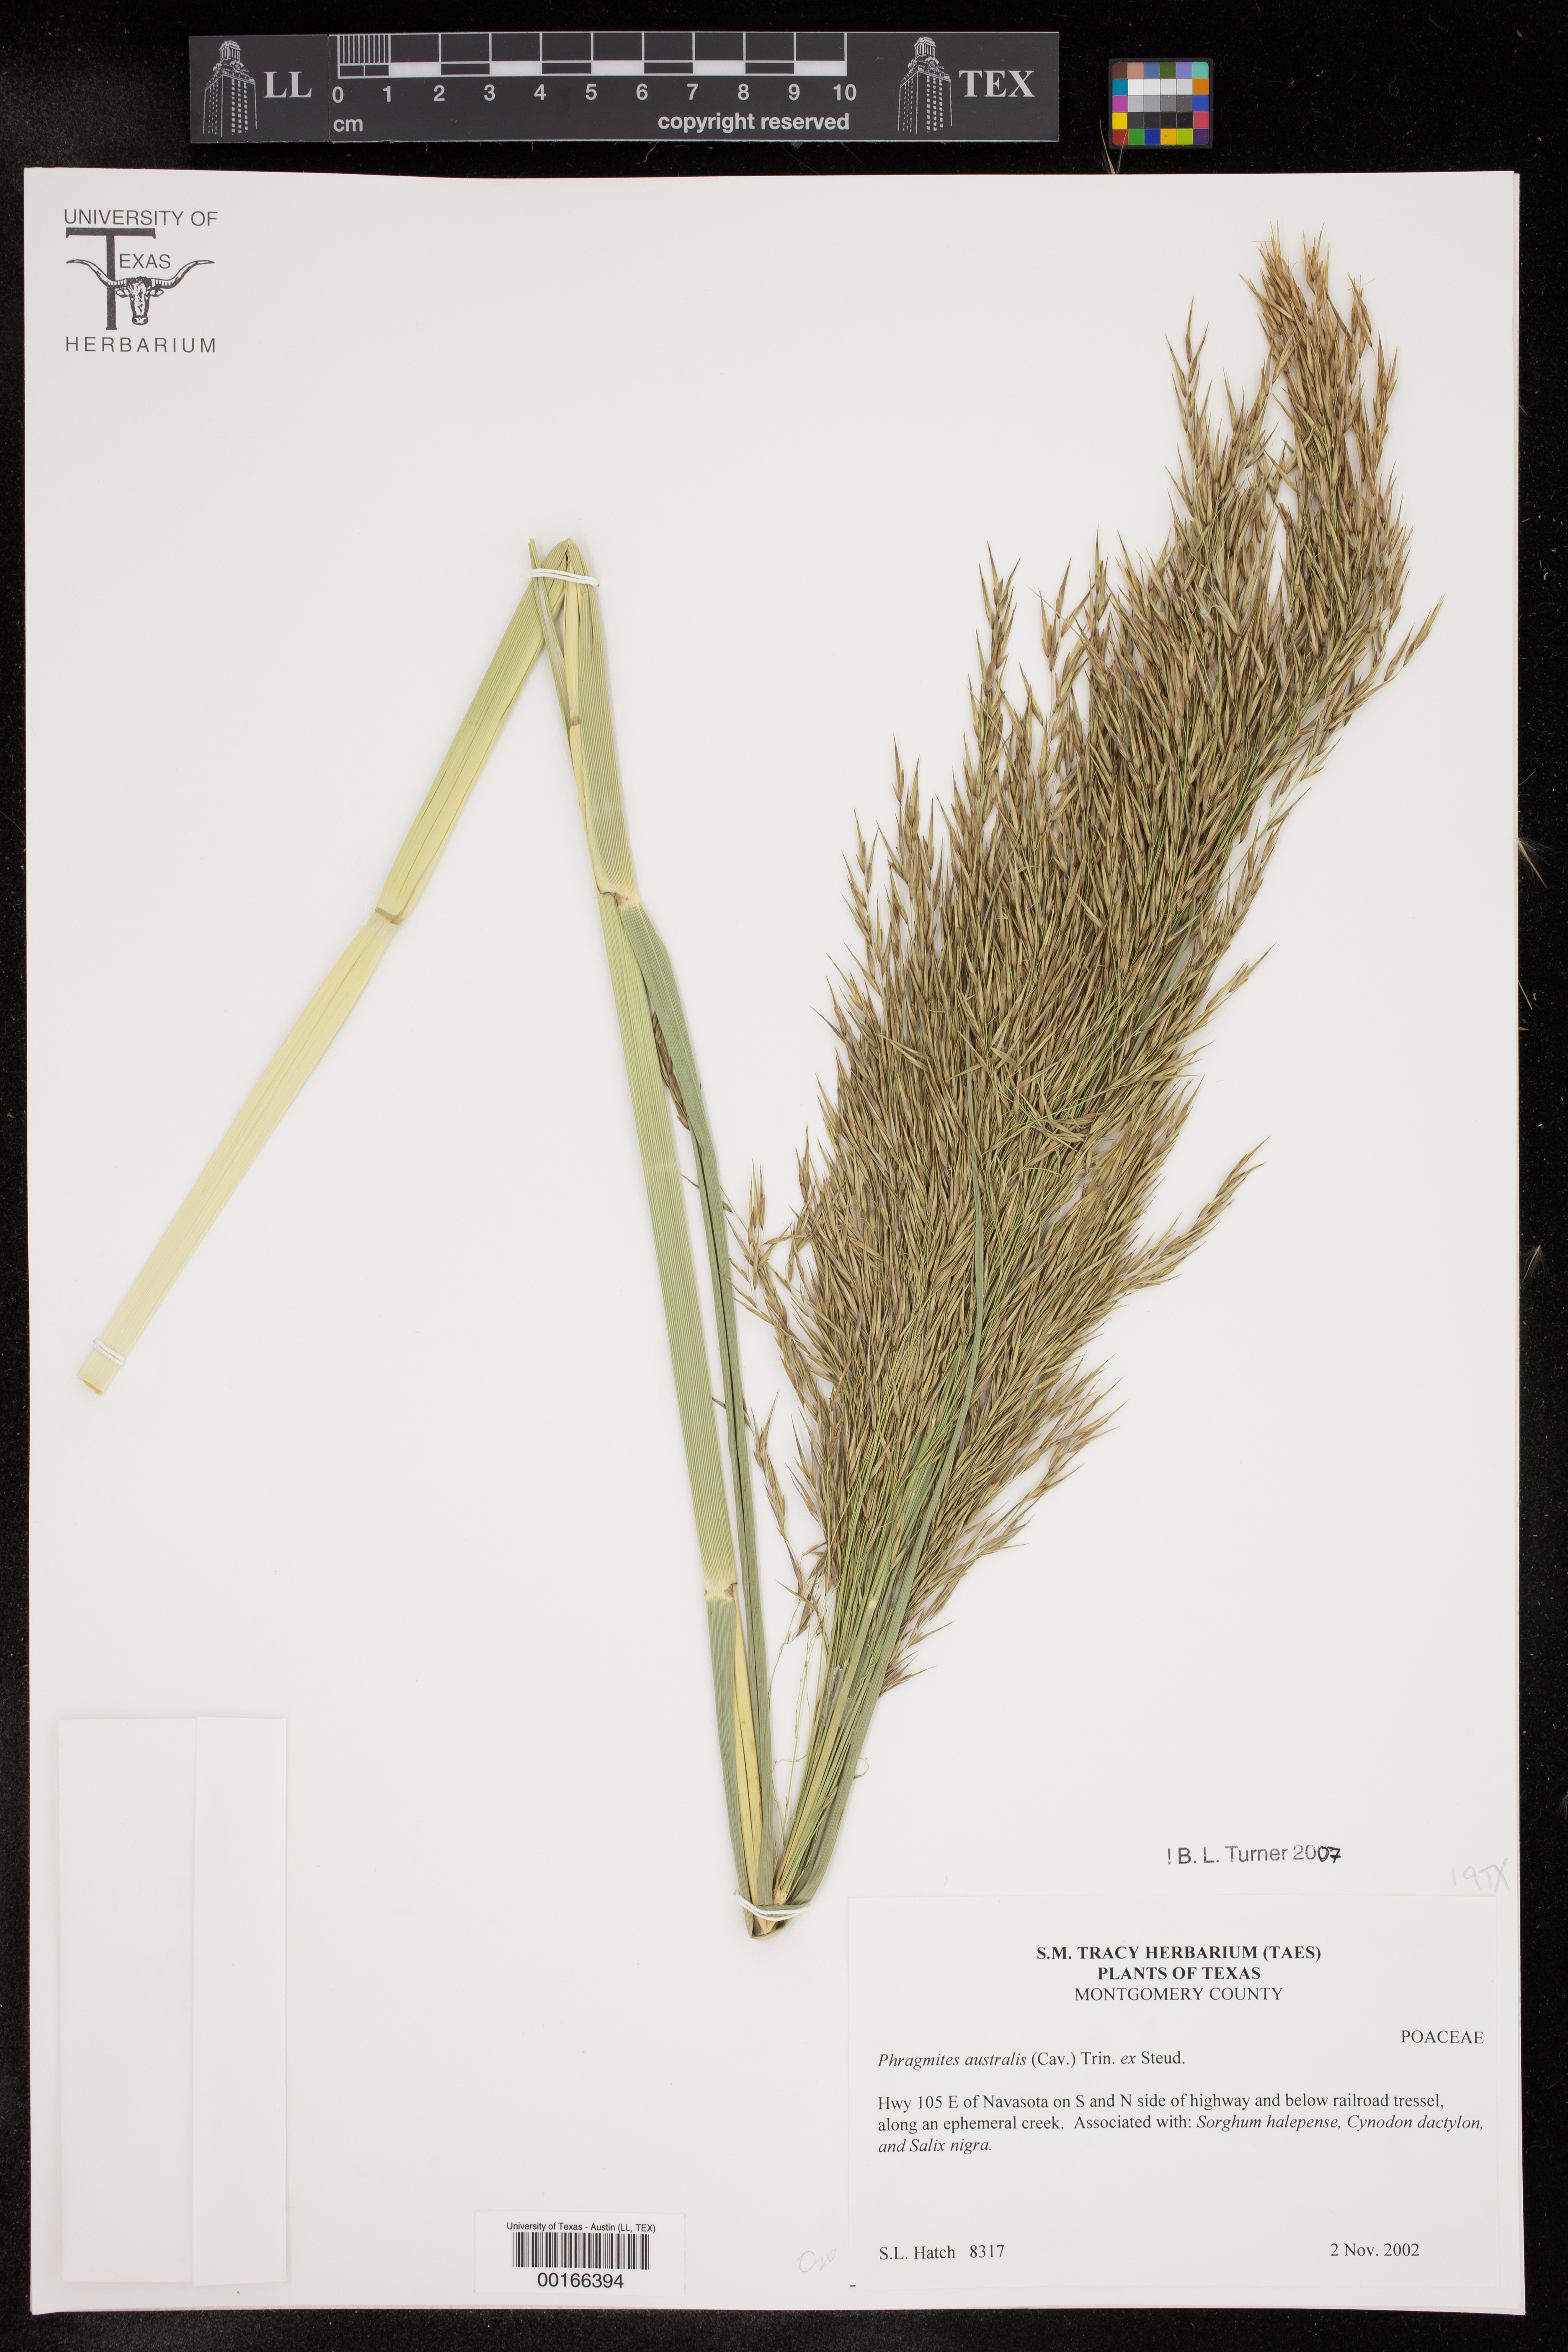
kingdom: Plantae
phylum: Tracheophyta
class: Liliopsida
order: Poales
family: Poaceae
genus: Phragmites
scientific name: Phragmites australis
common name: Common reed
